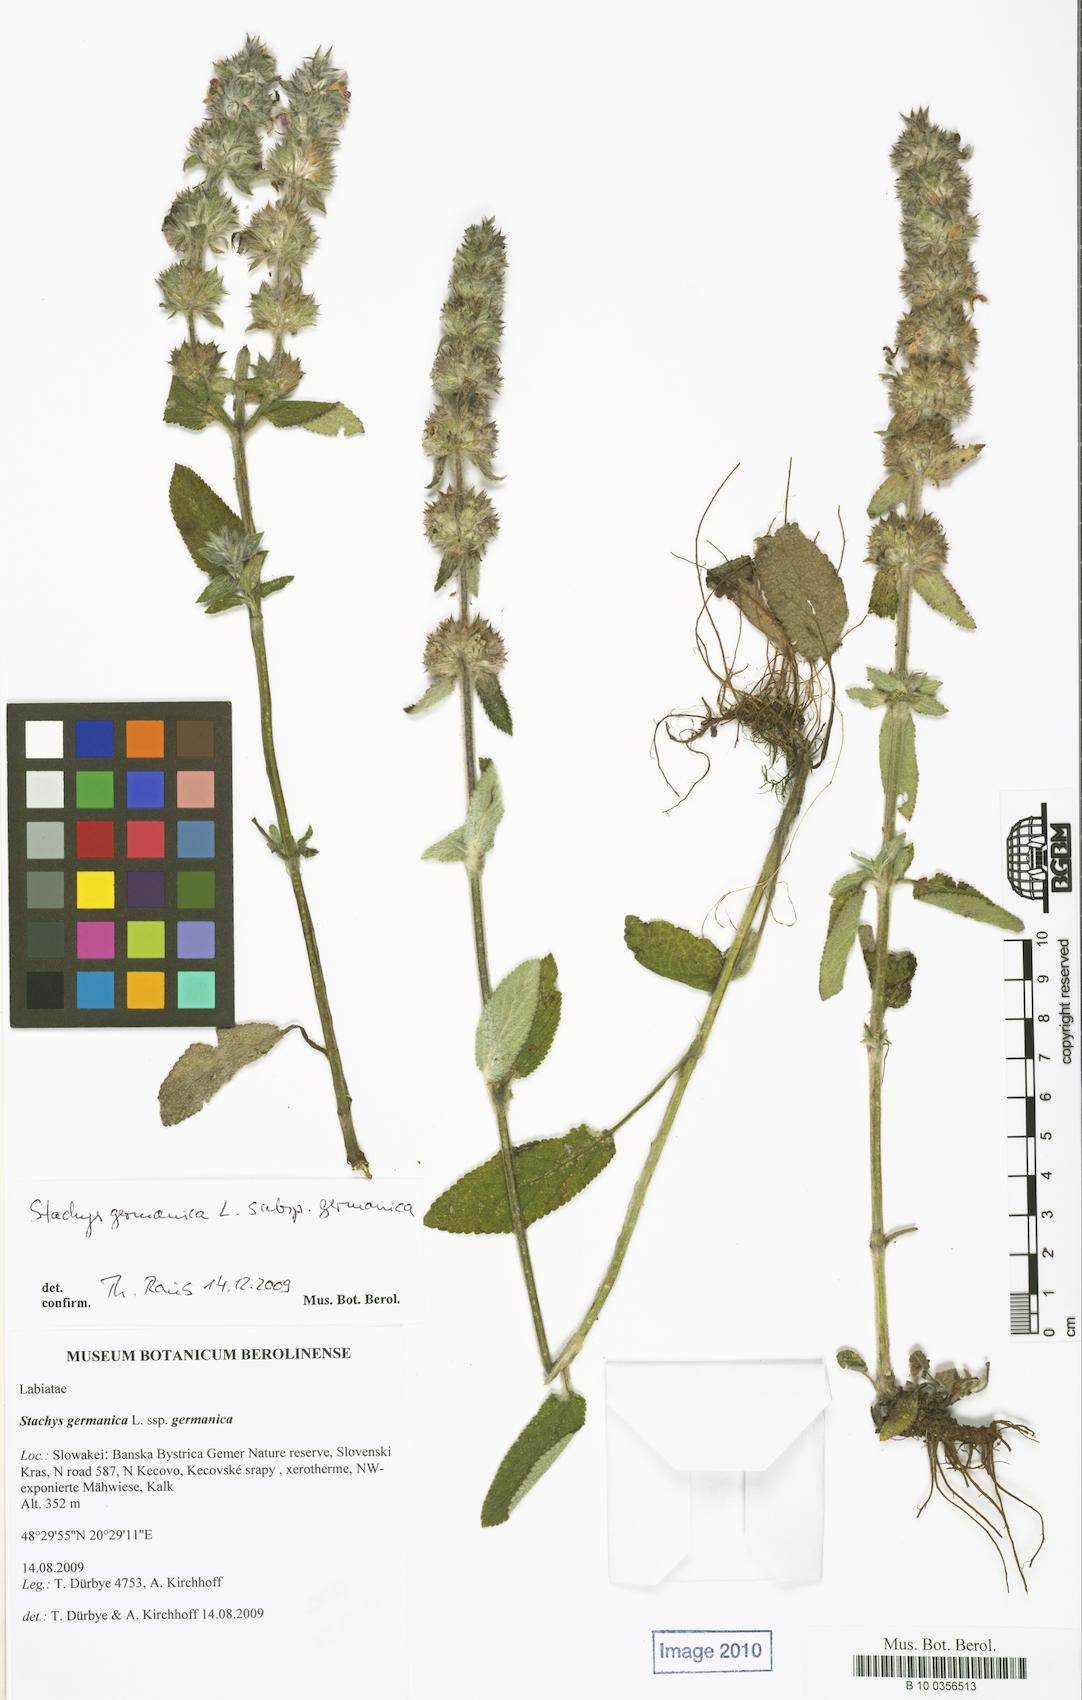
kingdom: Plantae
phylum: Tracheophyta
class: Magnoliopsida
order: Lamiales
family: Lamiaceae
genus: Stachys
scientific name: Stachys germanica
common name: Downy woundwort
